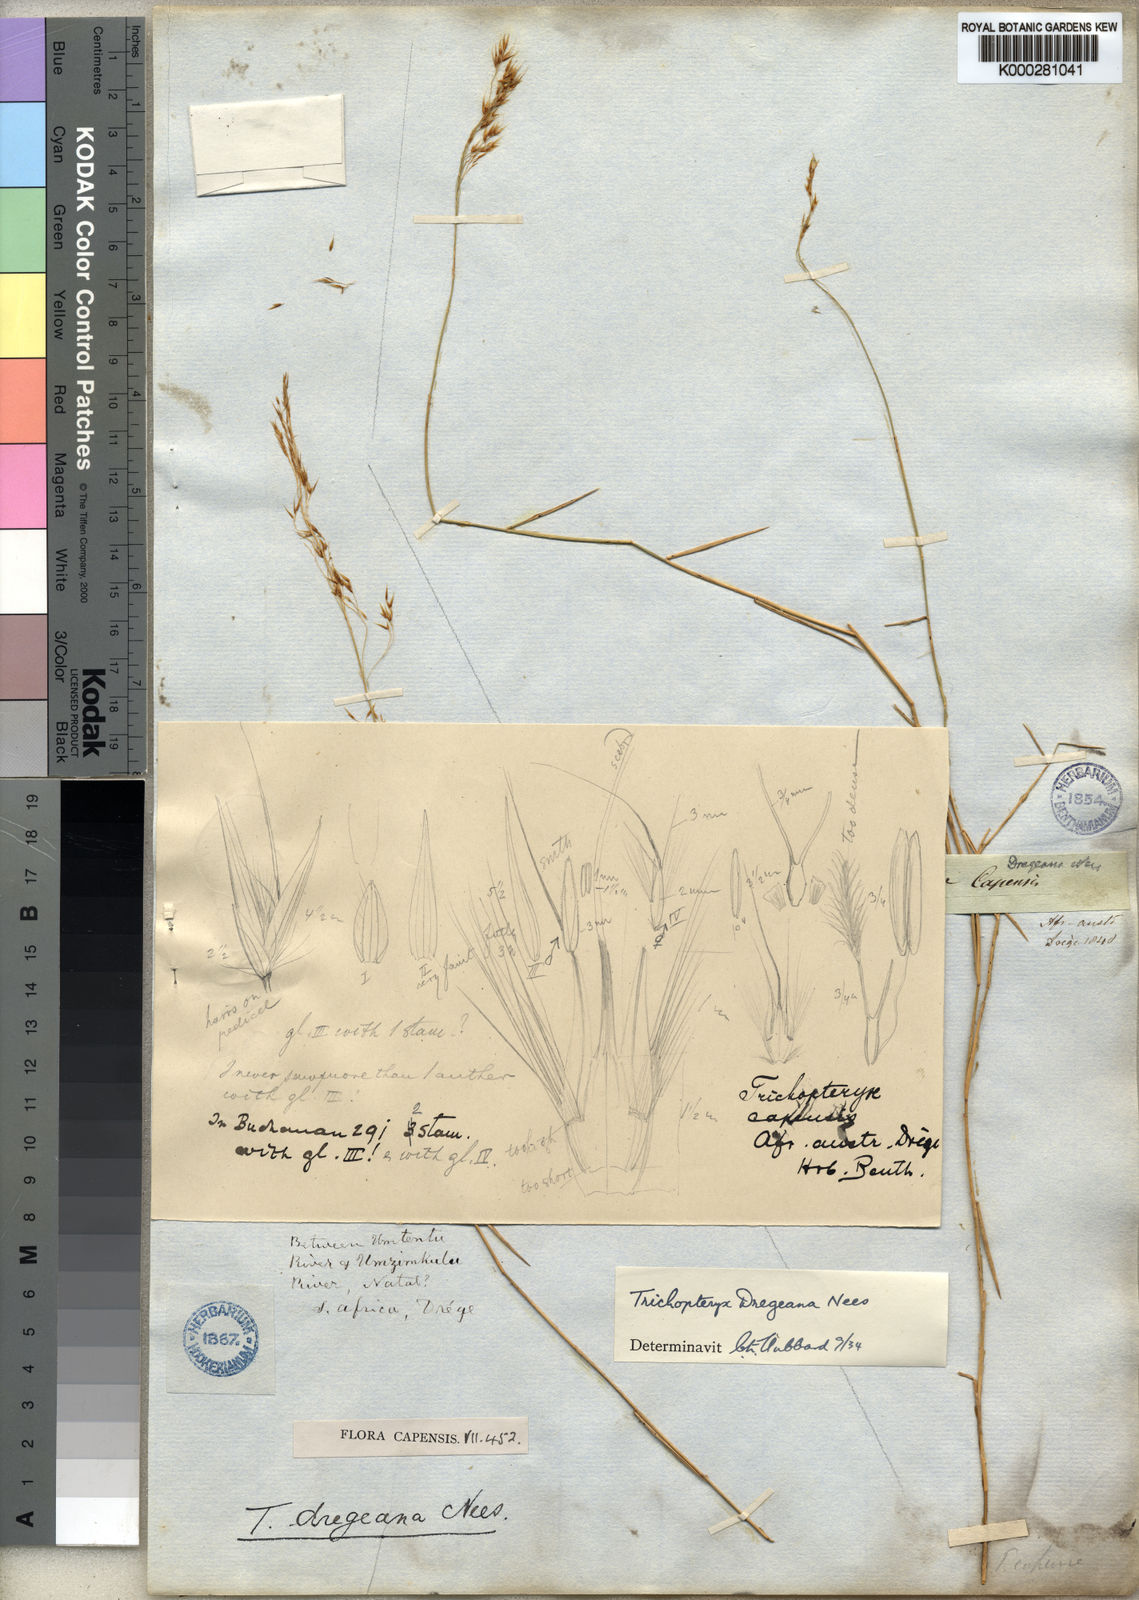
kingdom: Plantae
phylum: Tracheophyta
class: Liliopsida
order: Poales
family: Poaceae
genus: Trichopteryx
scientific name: Trichopteryx dregeana
